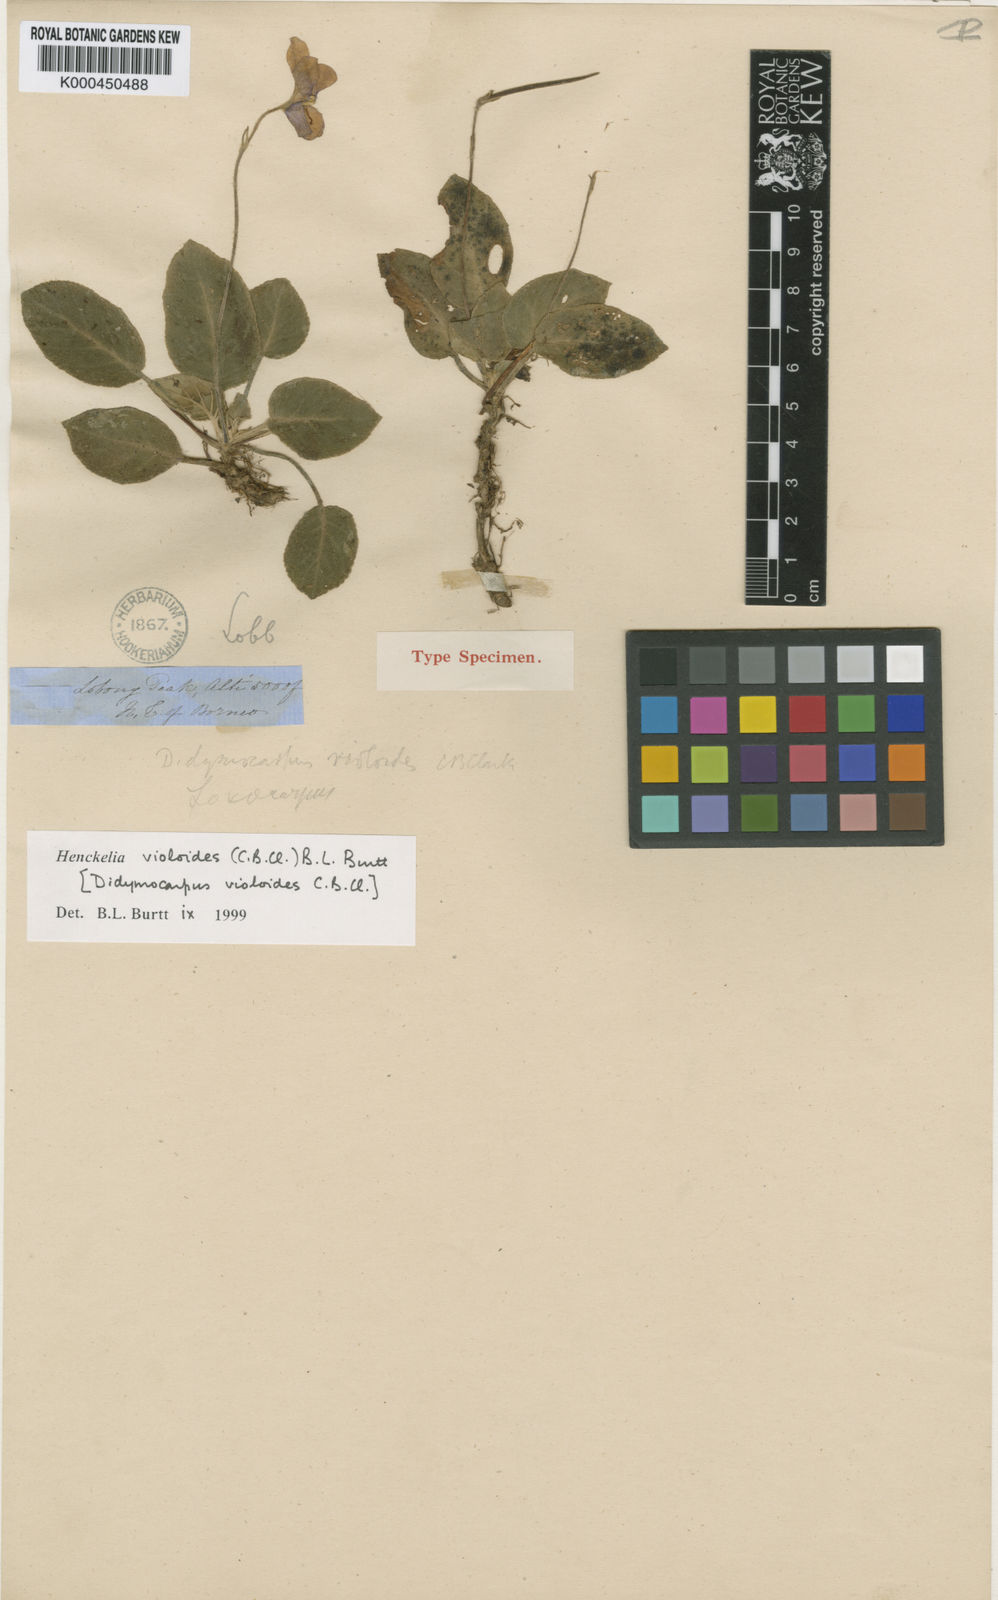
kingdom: Plantae
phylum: Tracheophyta
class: Magnoliopsida
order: Lamiales
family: Gesneriaceae
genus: Loxocarpus
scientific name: Loxocarpus violoides
